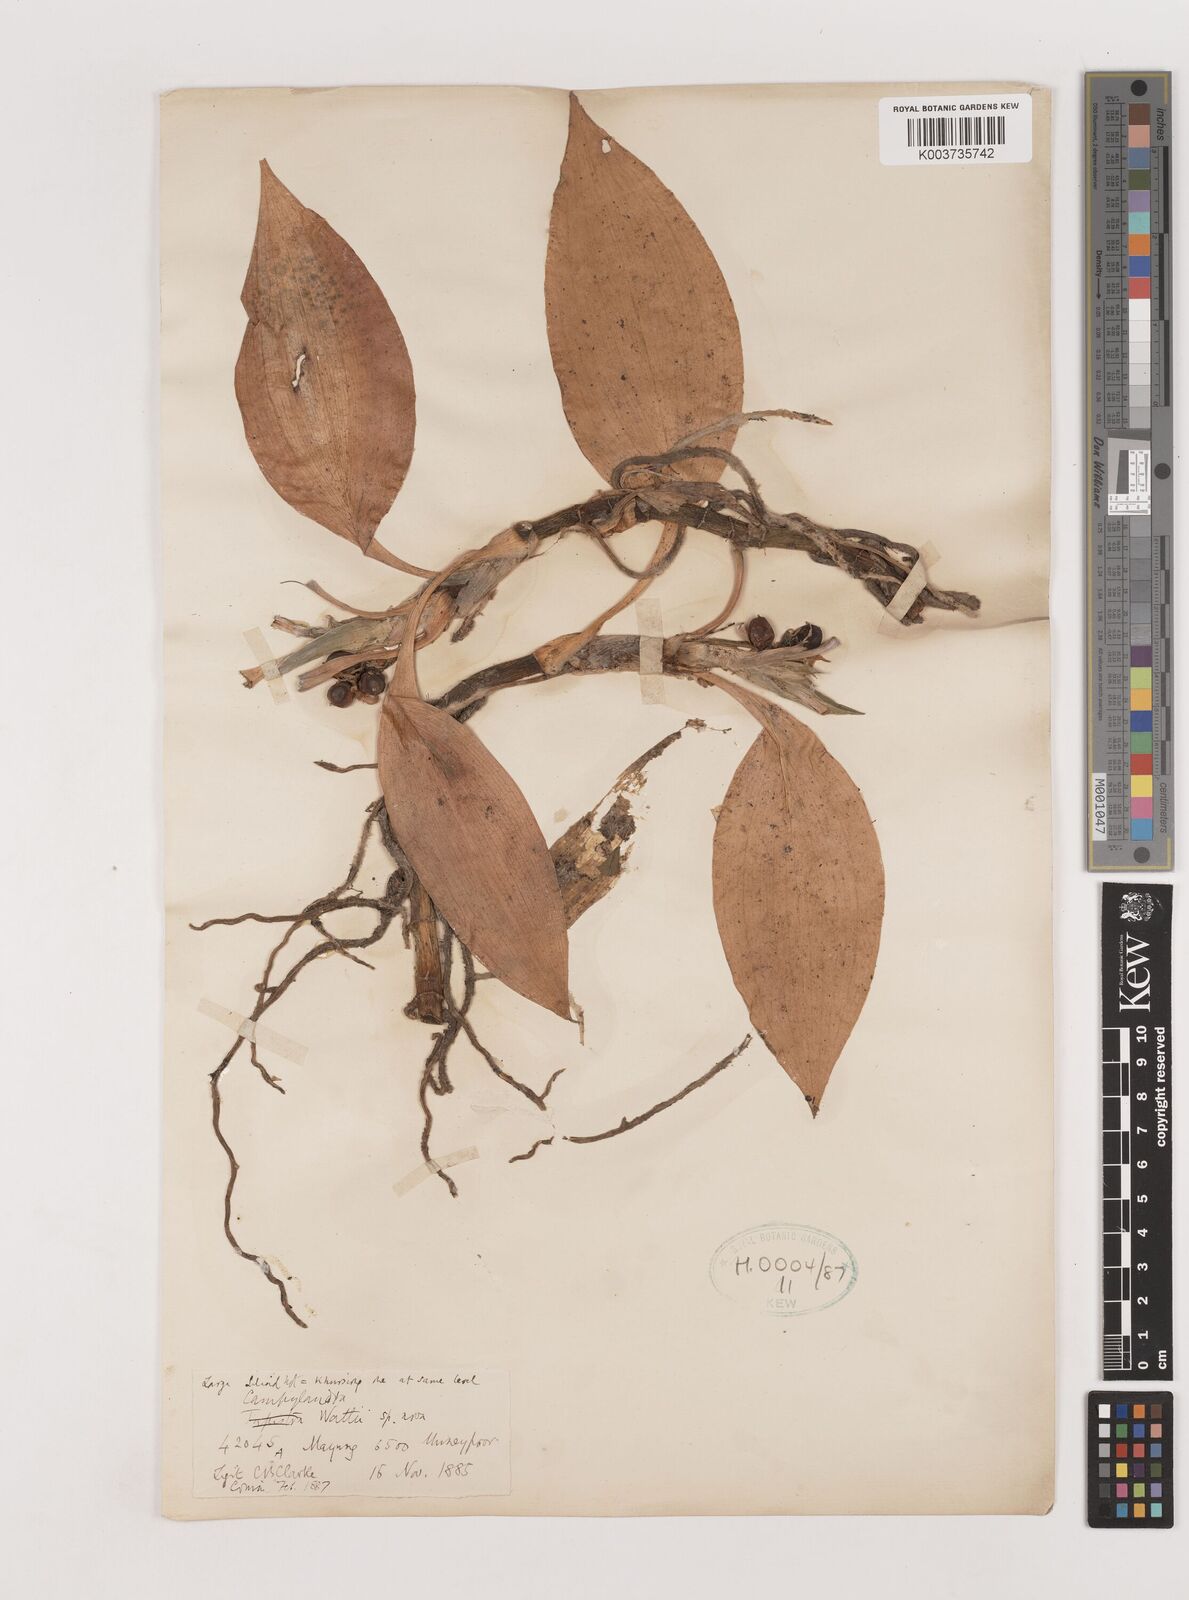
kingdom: Plantae
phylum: Tracheophyta
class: Liliopsida
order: Asparagales
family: Asparagaceae
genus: Rohdea
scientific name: Rohdea wattii
